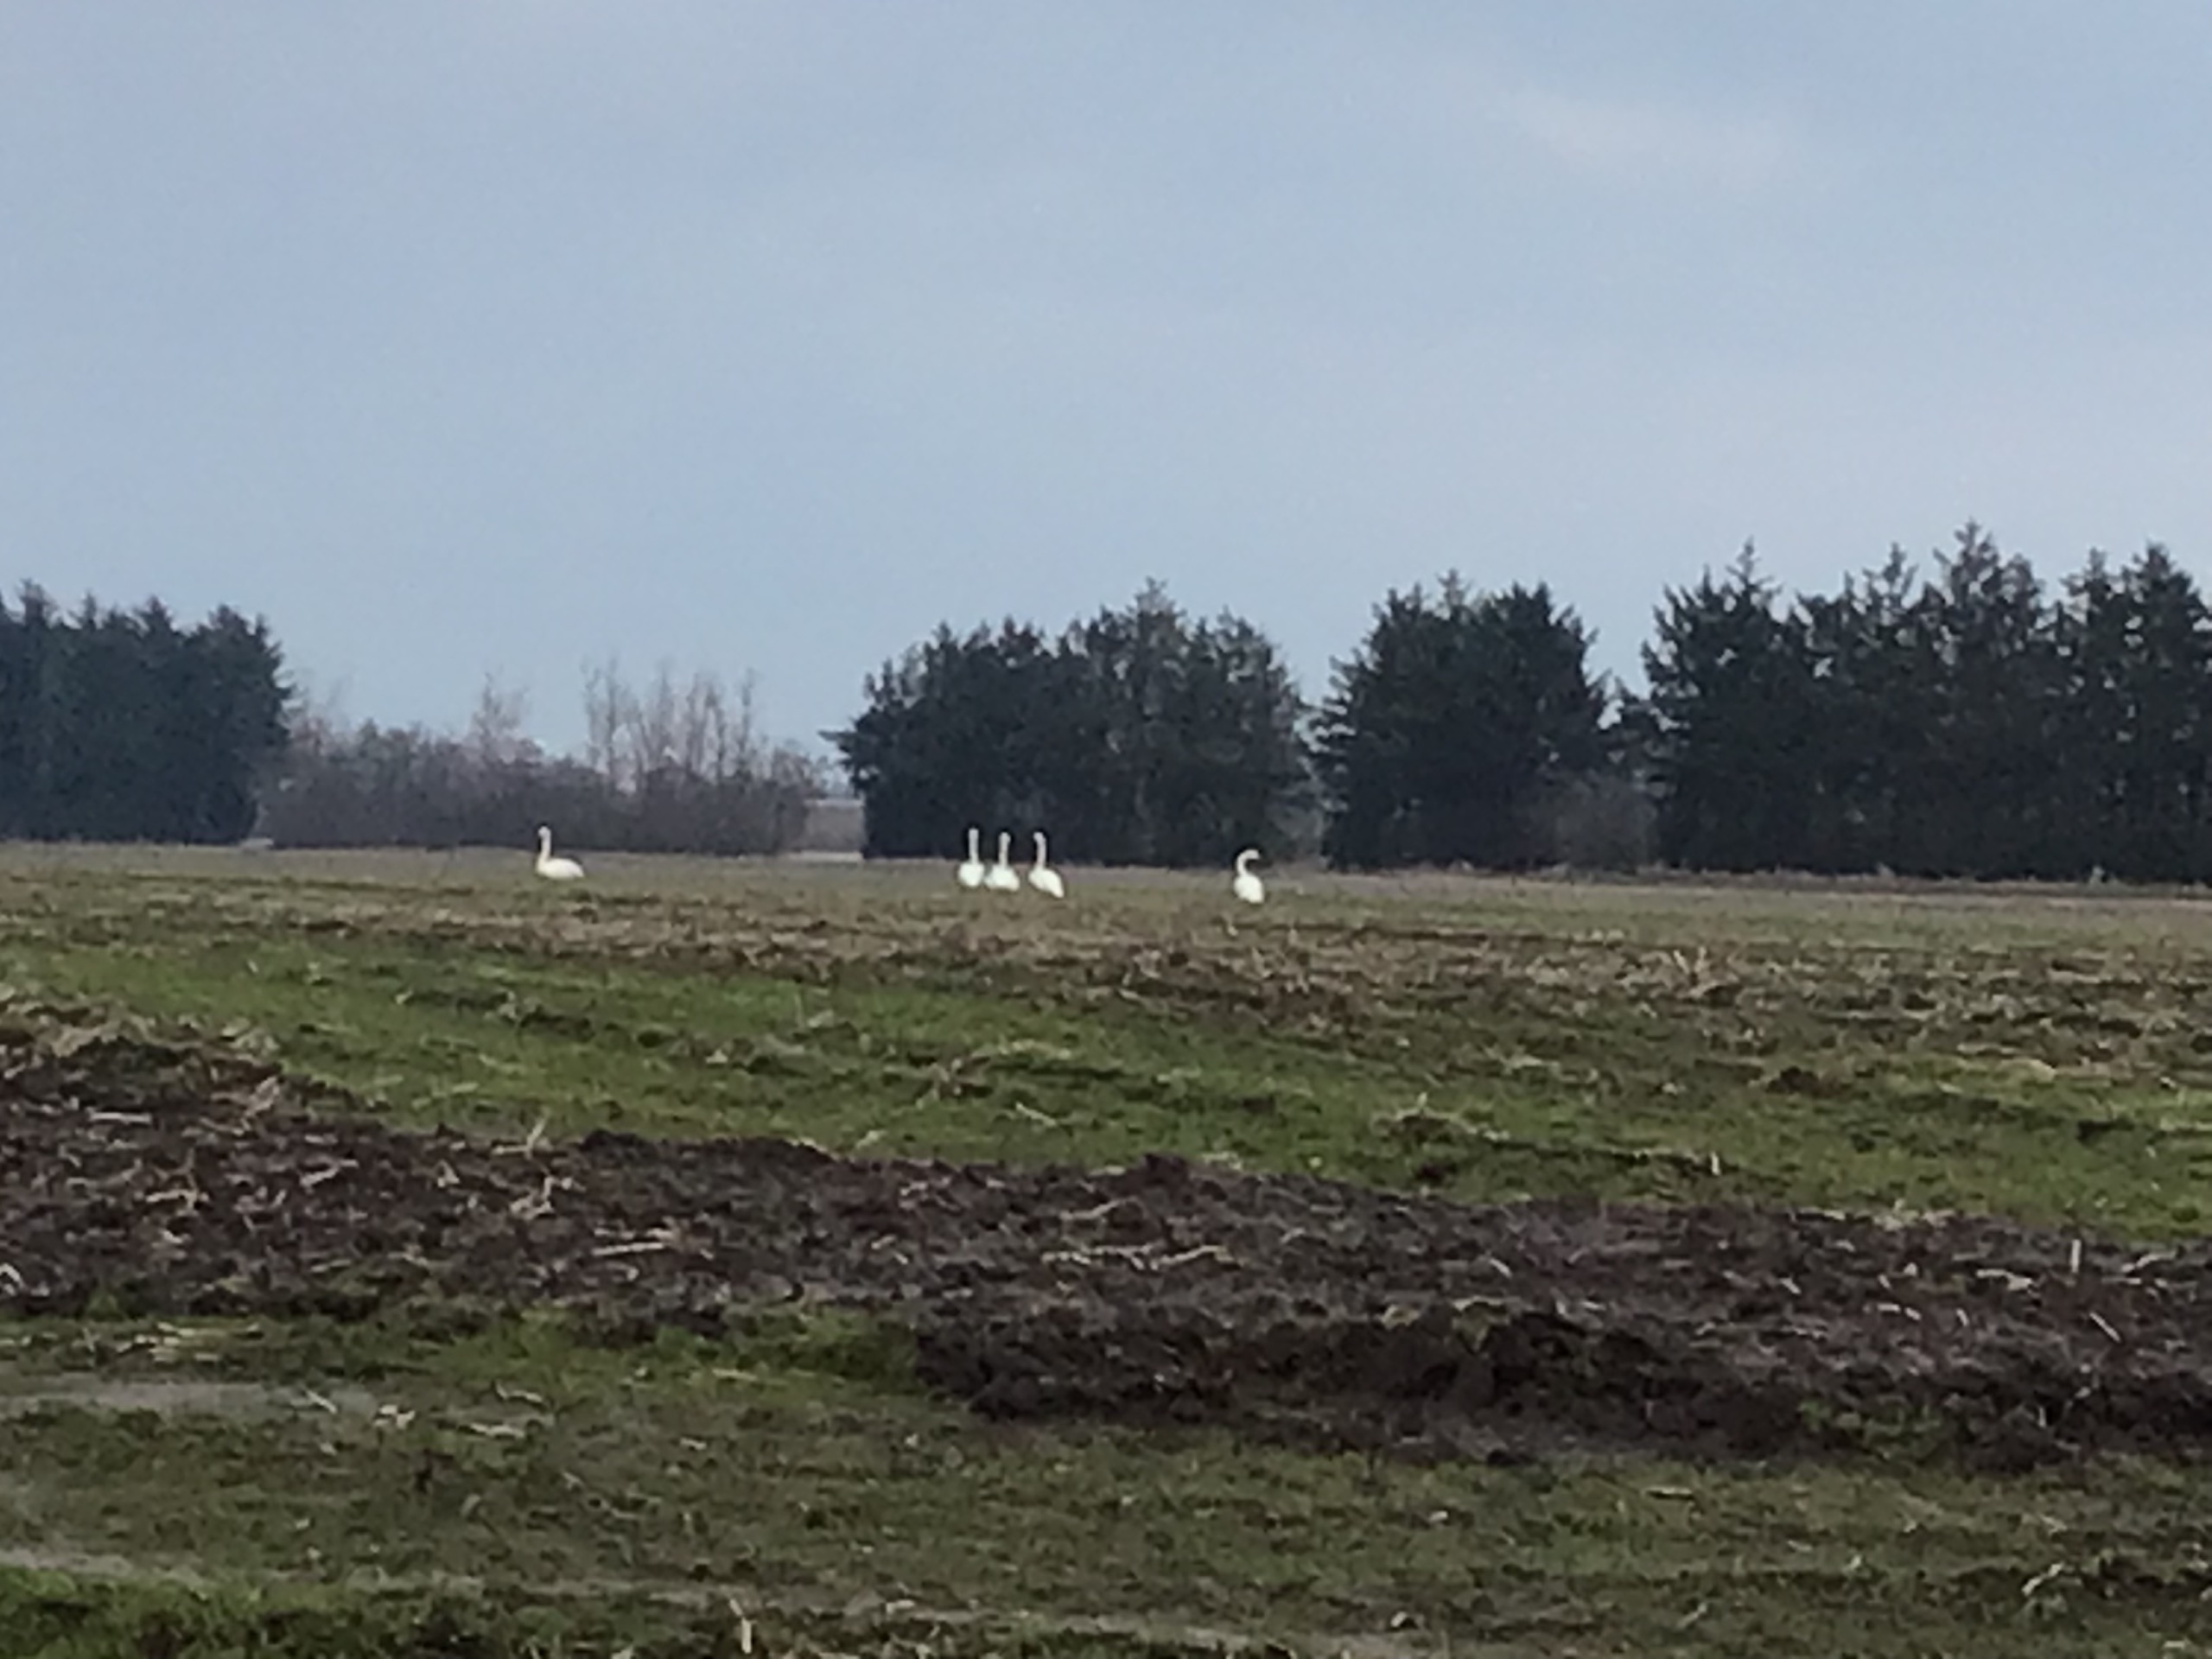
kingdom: Animalia
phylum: Chordata
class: Aves
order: Anseriformes
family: Anatidae
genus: Cygnus
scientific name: Cygnus cygnus
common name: Sangsvane
